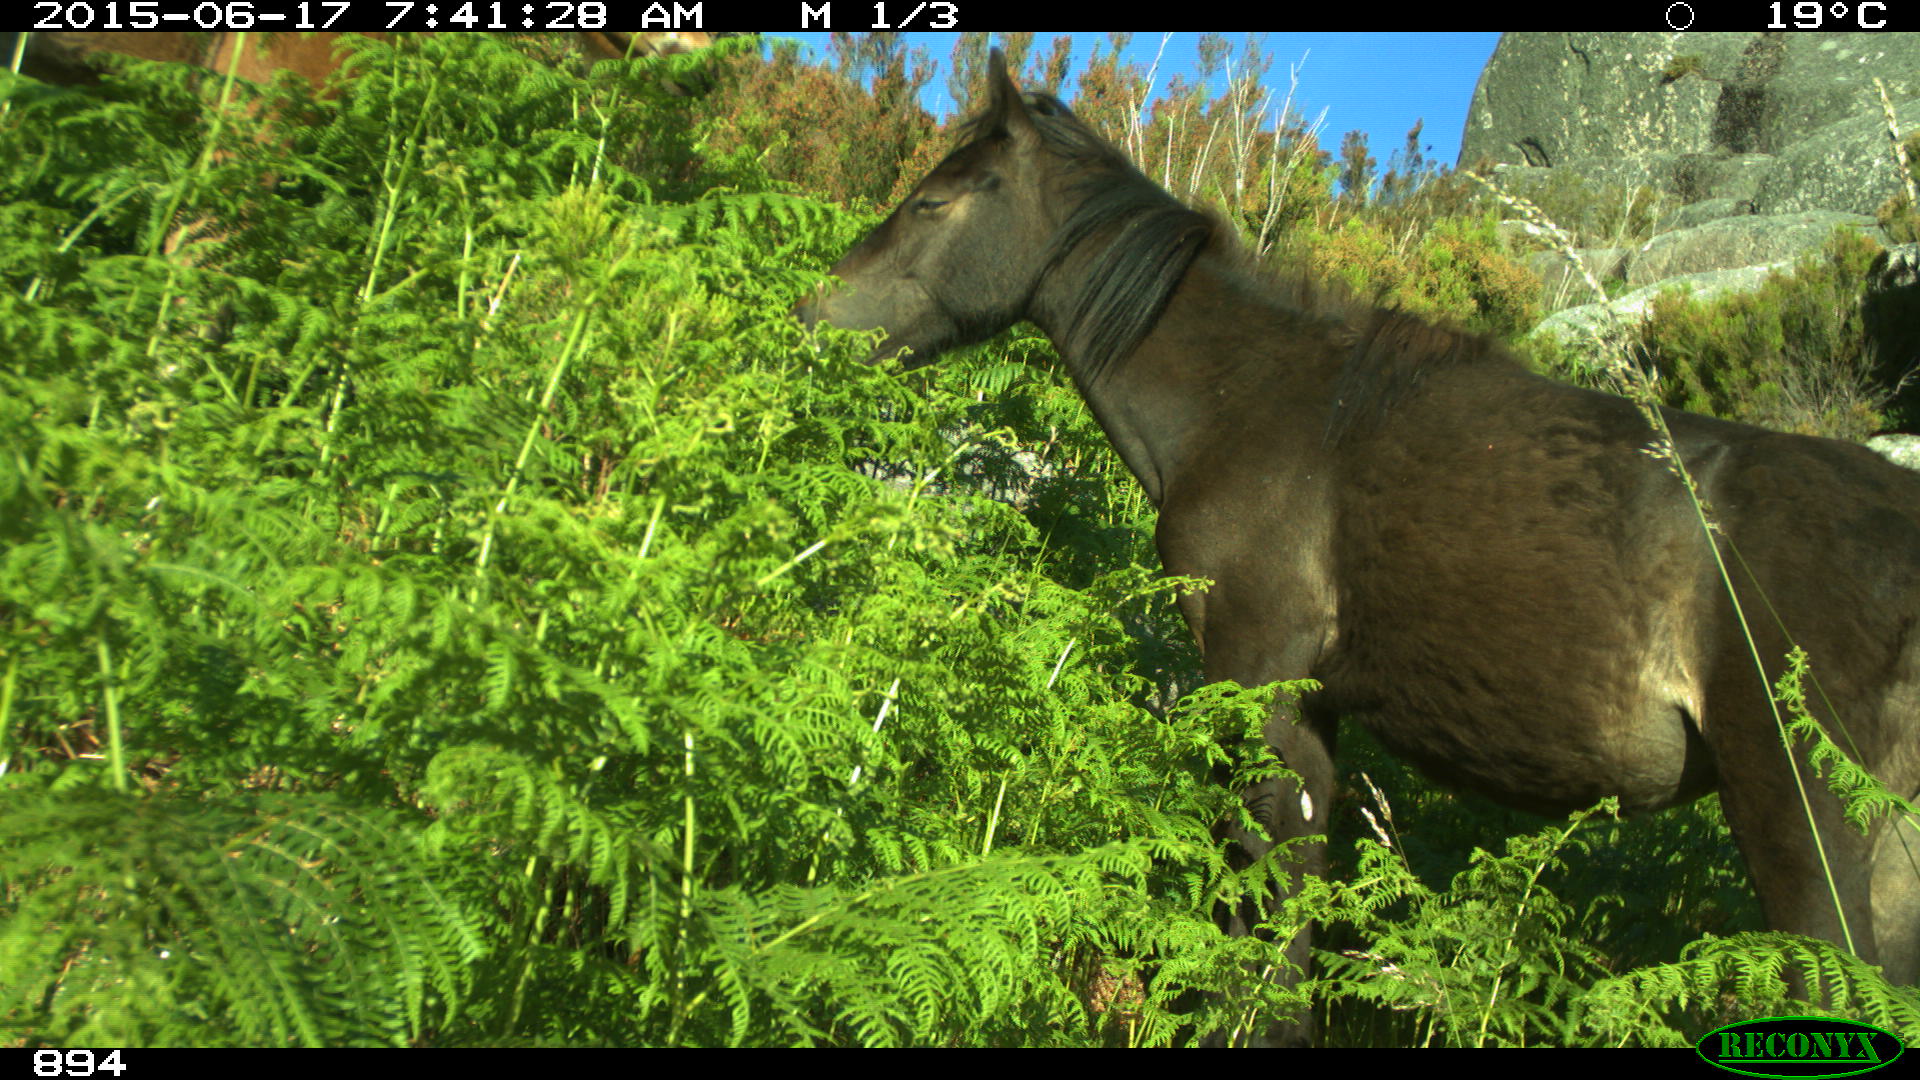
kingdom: Animalia
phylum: Chordata
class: Mammalia
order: Perissodactyla
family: Equidae
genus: Equus
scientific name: Equus caballus
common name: Horse
